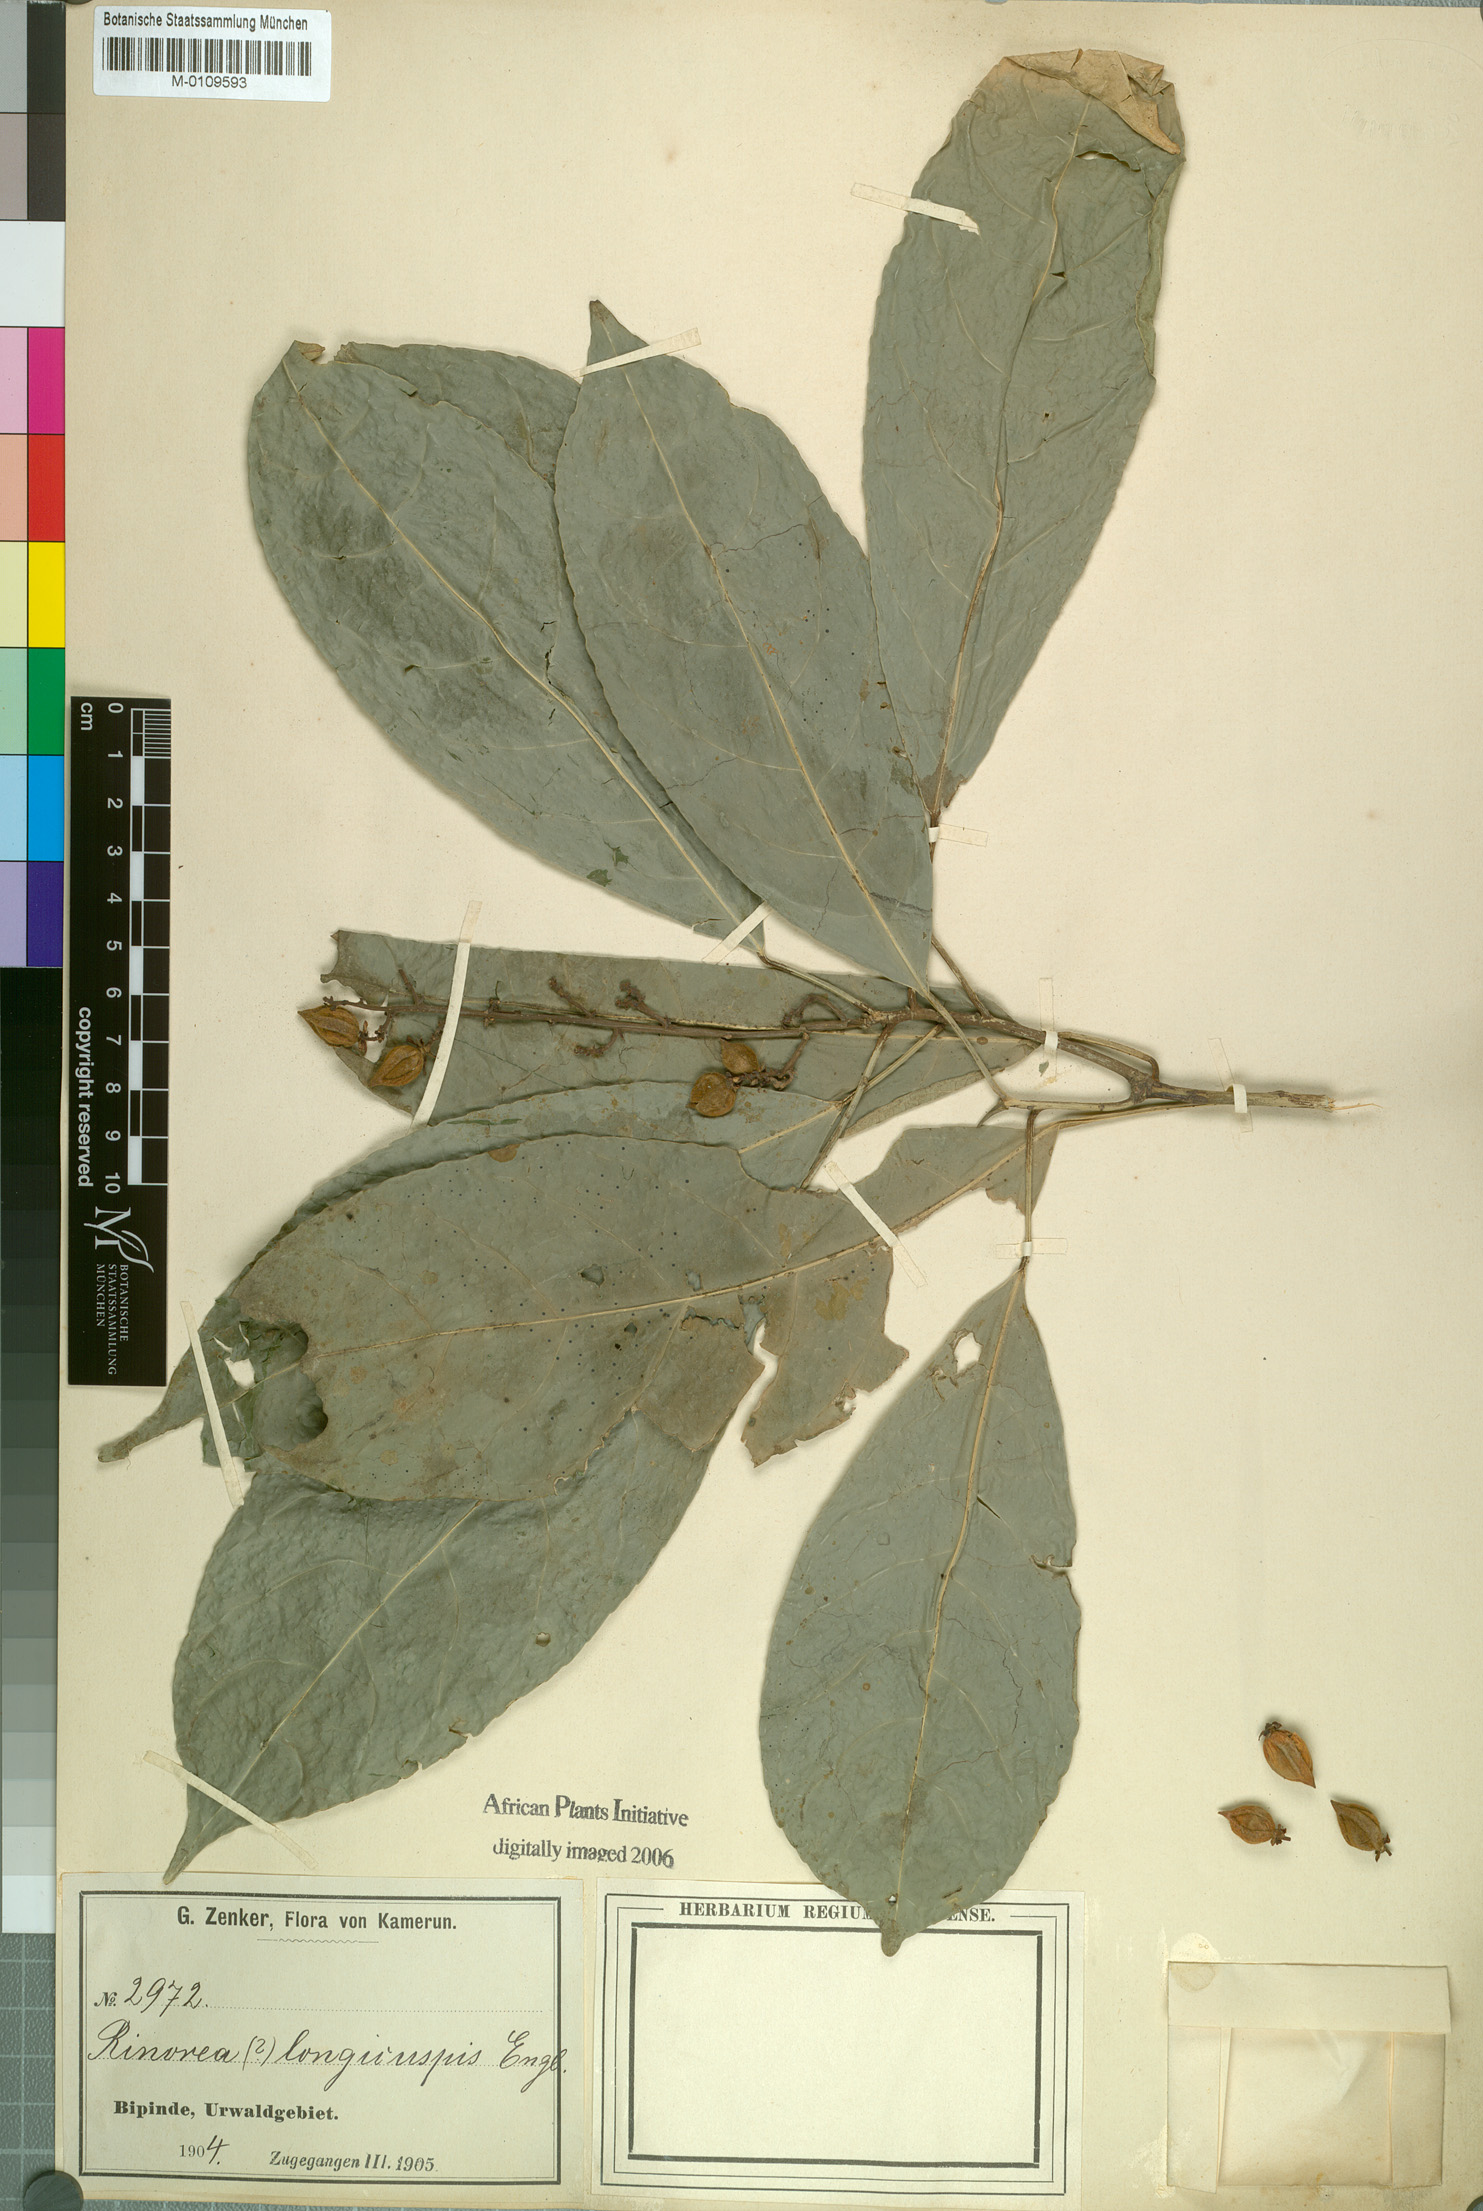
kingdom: Plantae
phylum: Tracheophyta
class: Magnoliopsida
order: Malpighiales
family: Violaceae
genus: Rinorea
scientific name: Rinorea welwitschii
